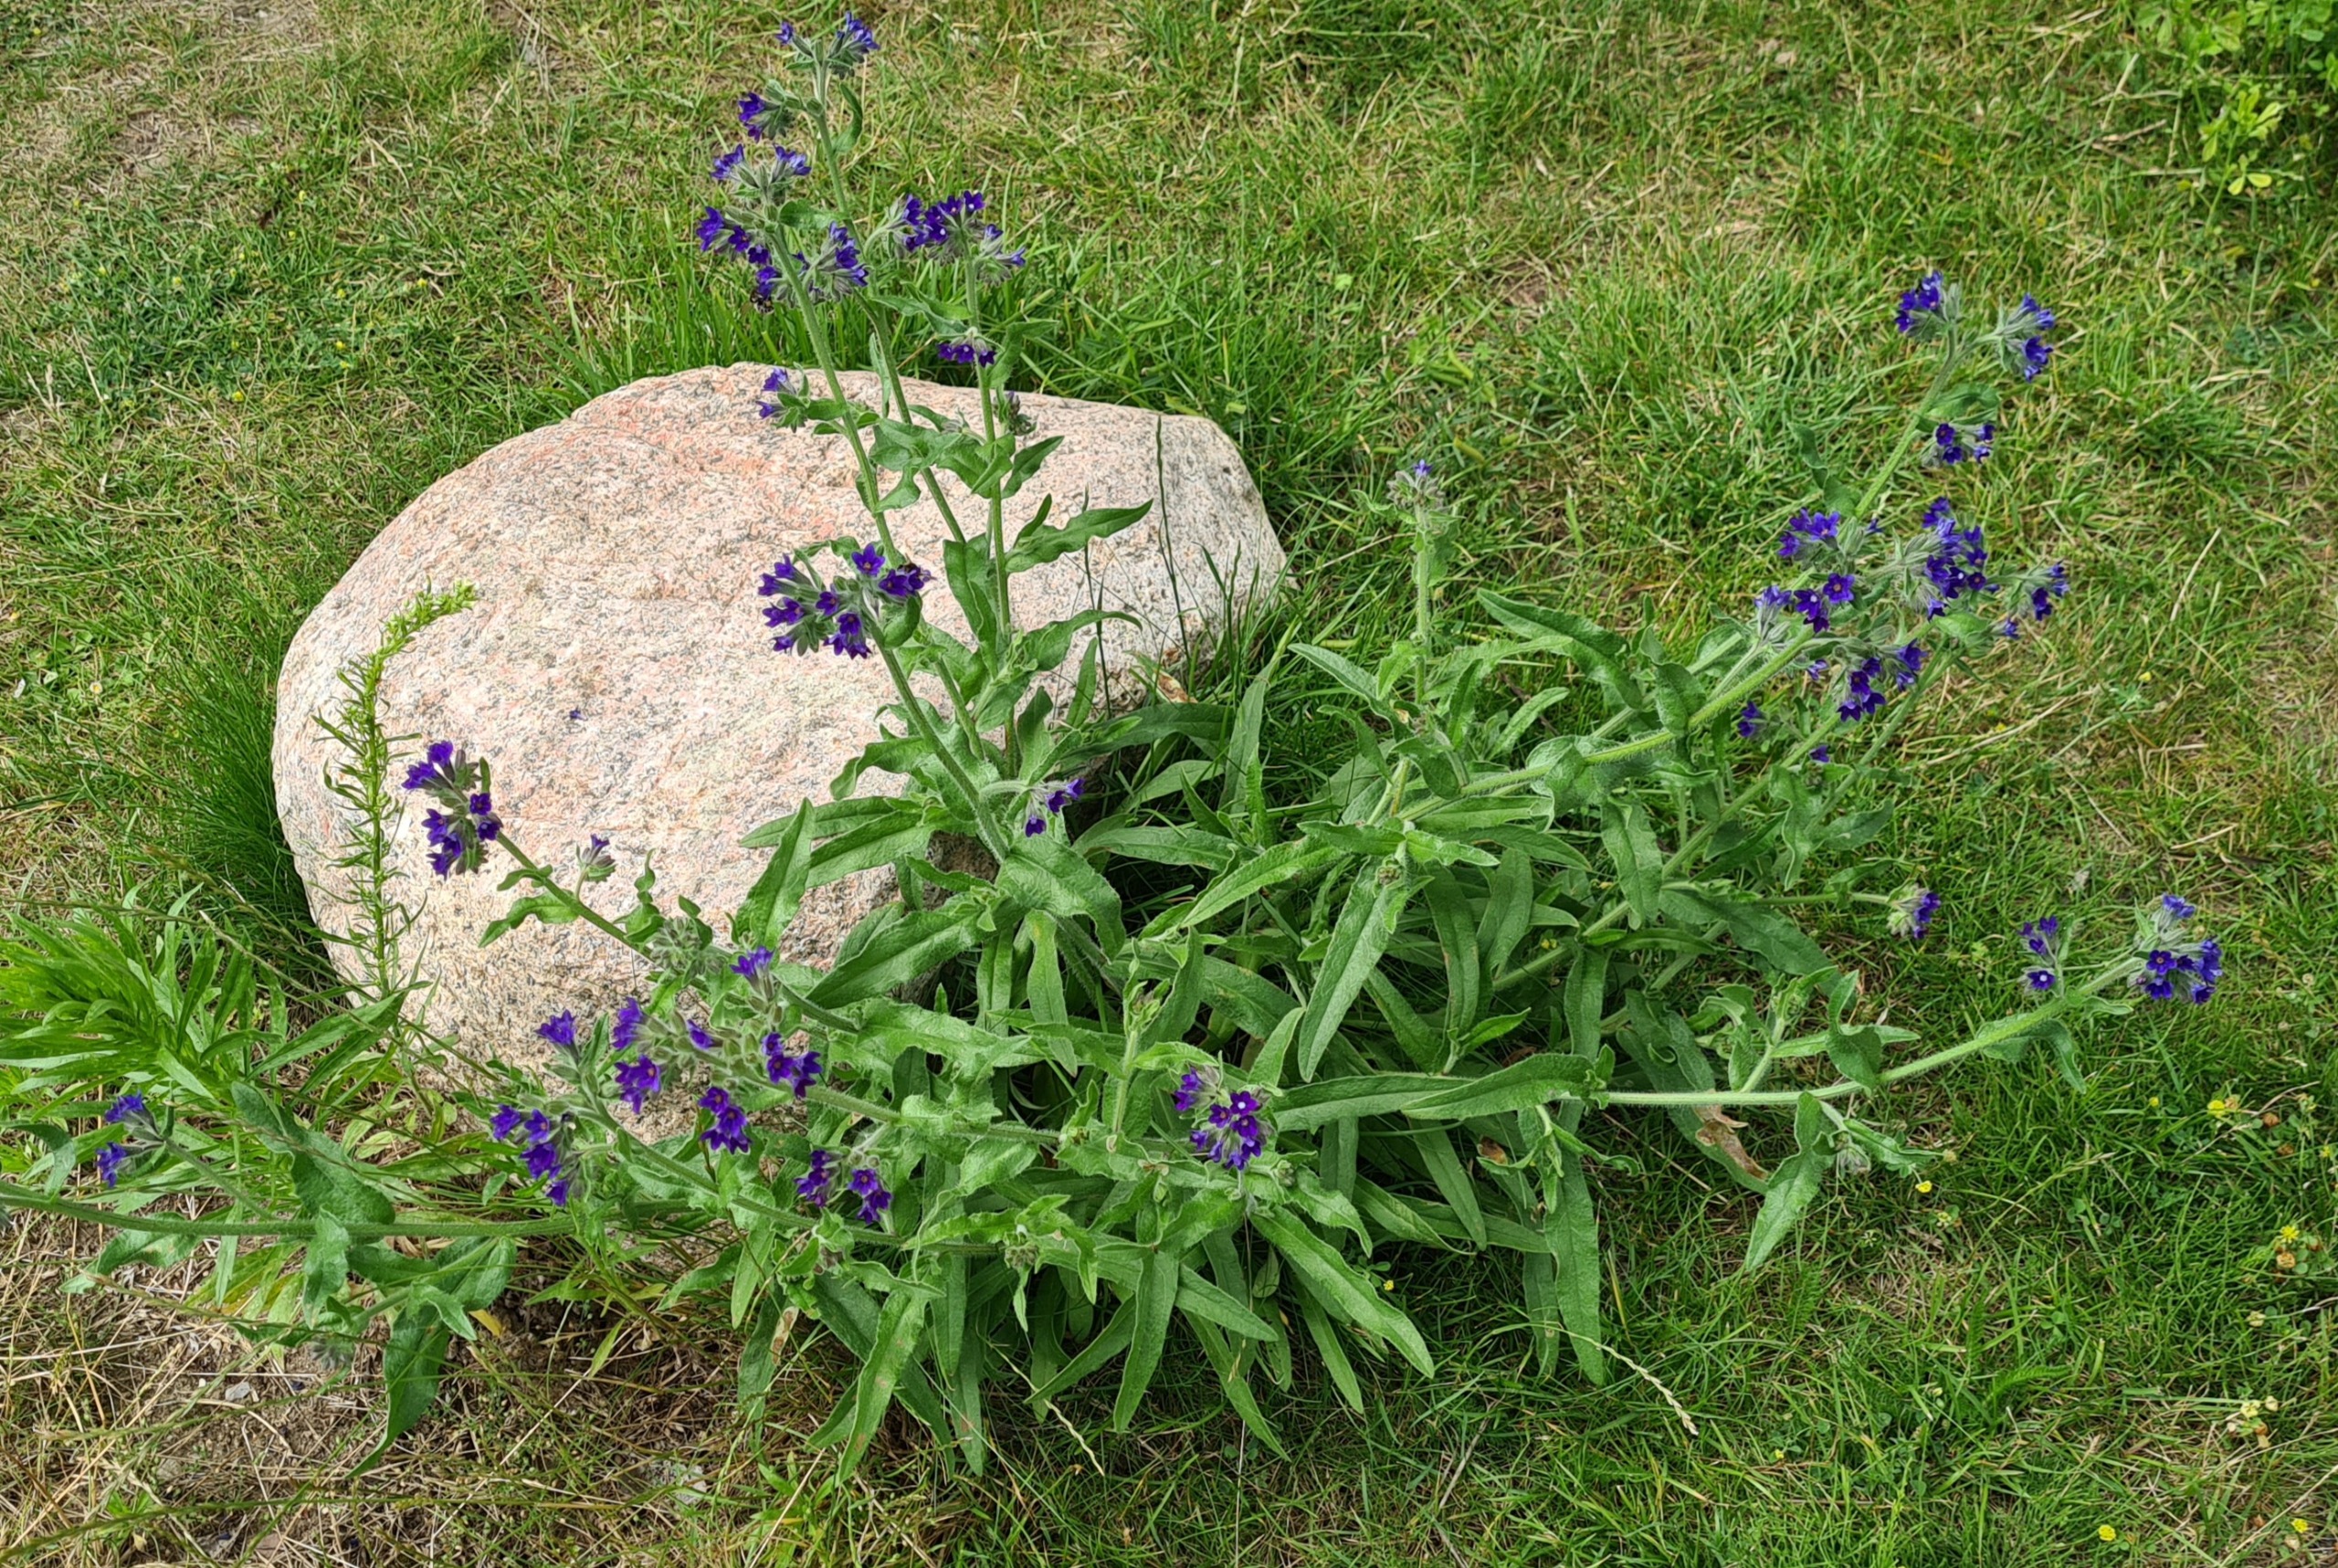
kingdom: Plantae
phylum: Tracheophyta
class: Magnoliopsida
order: Boraginales
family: Boraginaceae
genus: Anchusa
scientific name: Anchusa officinalis
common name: Læge-oksetunge
